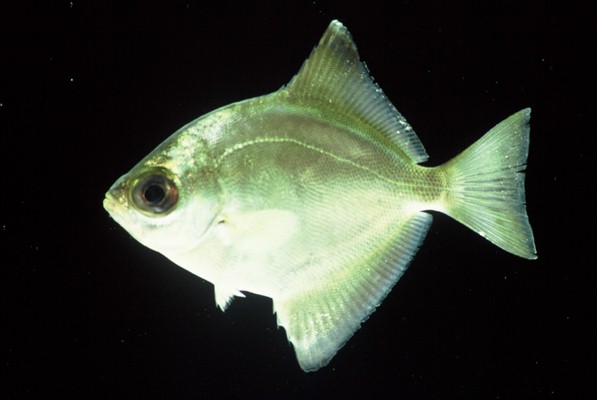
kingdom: Animalia
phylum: Chordata
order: Perciformes
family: Monodactylidae
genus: Monodactylus
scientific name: Monodactylus falciformis
